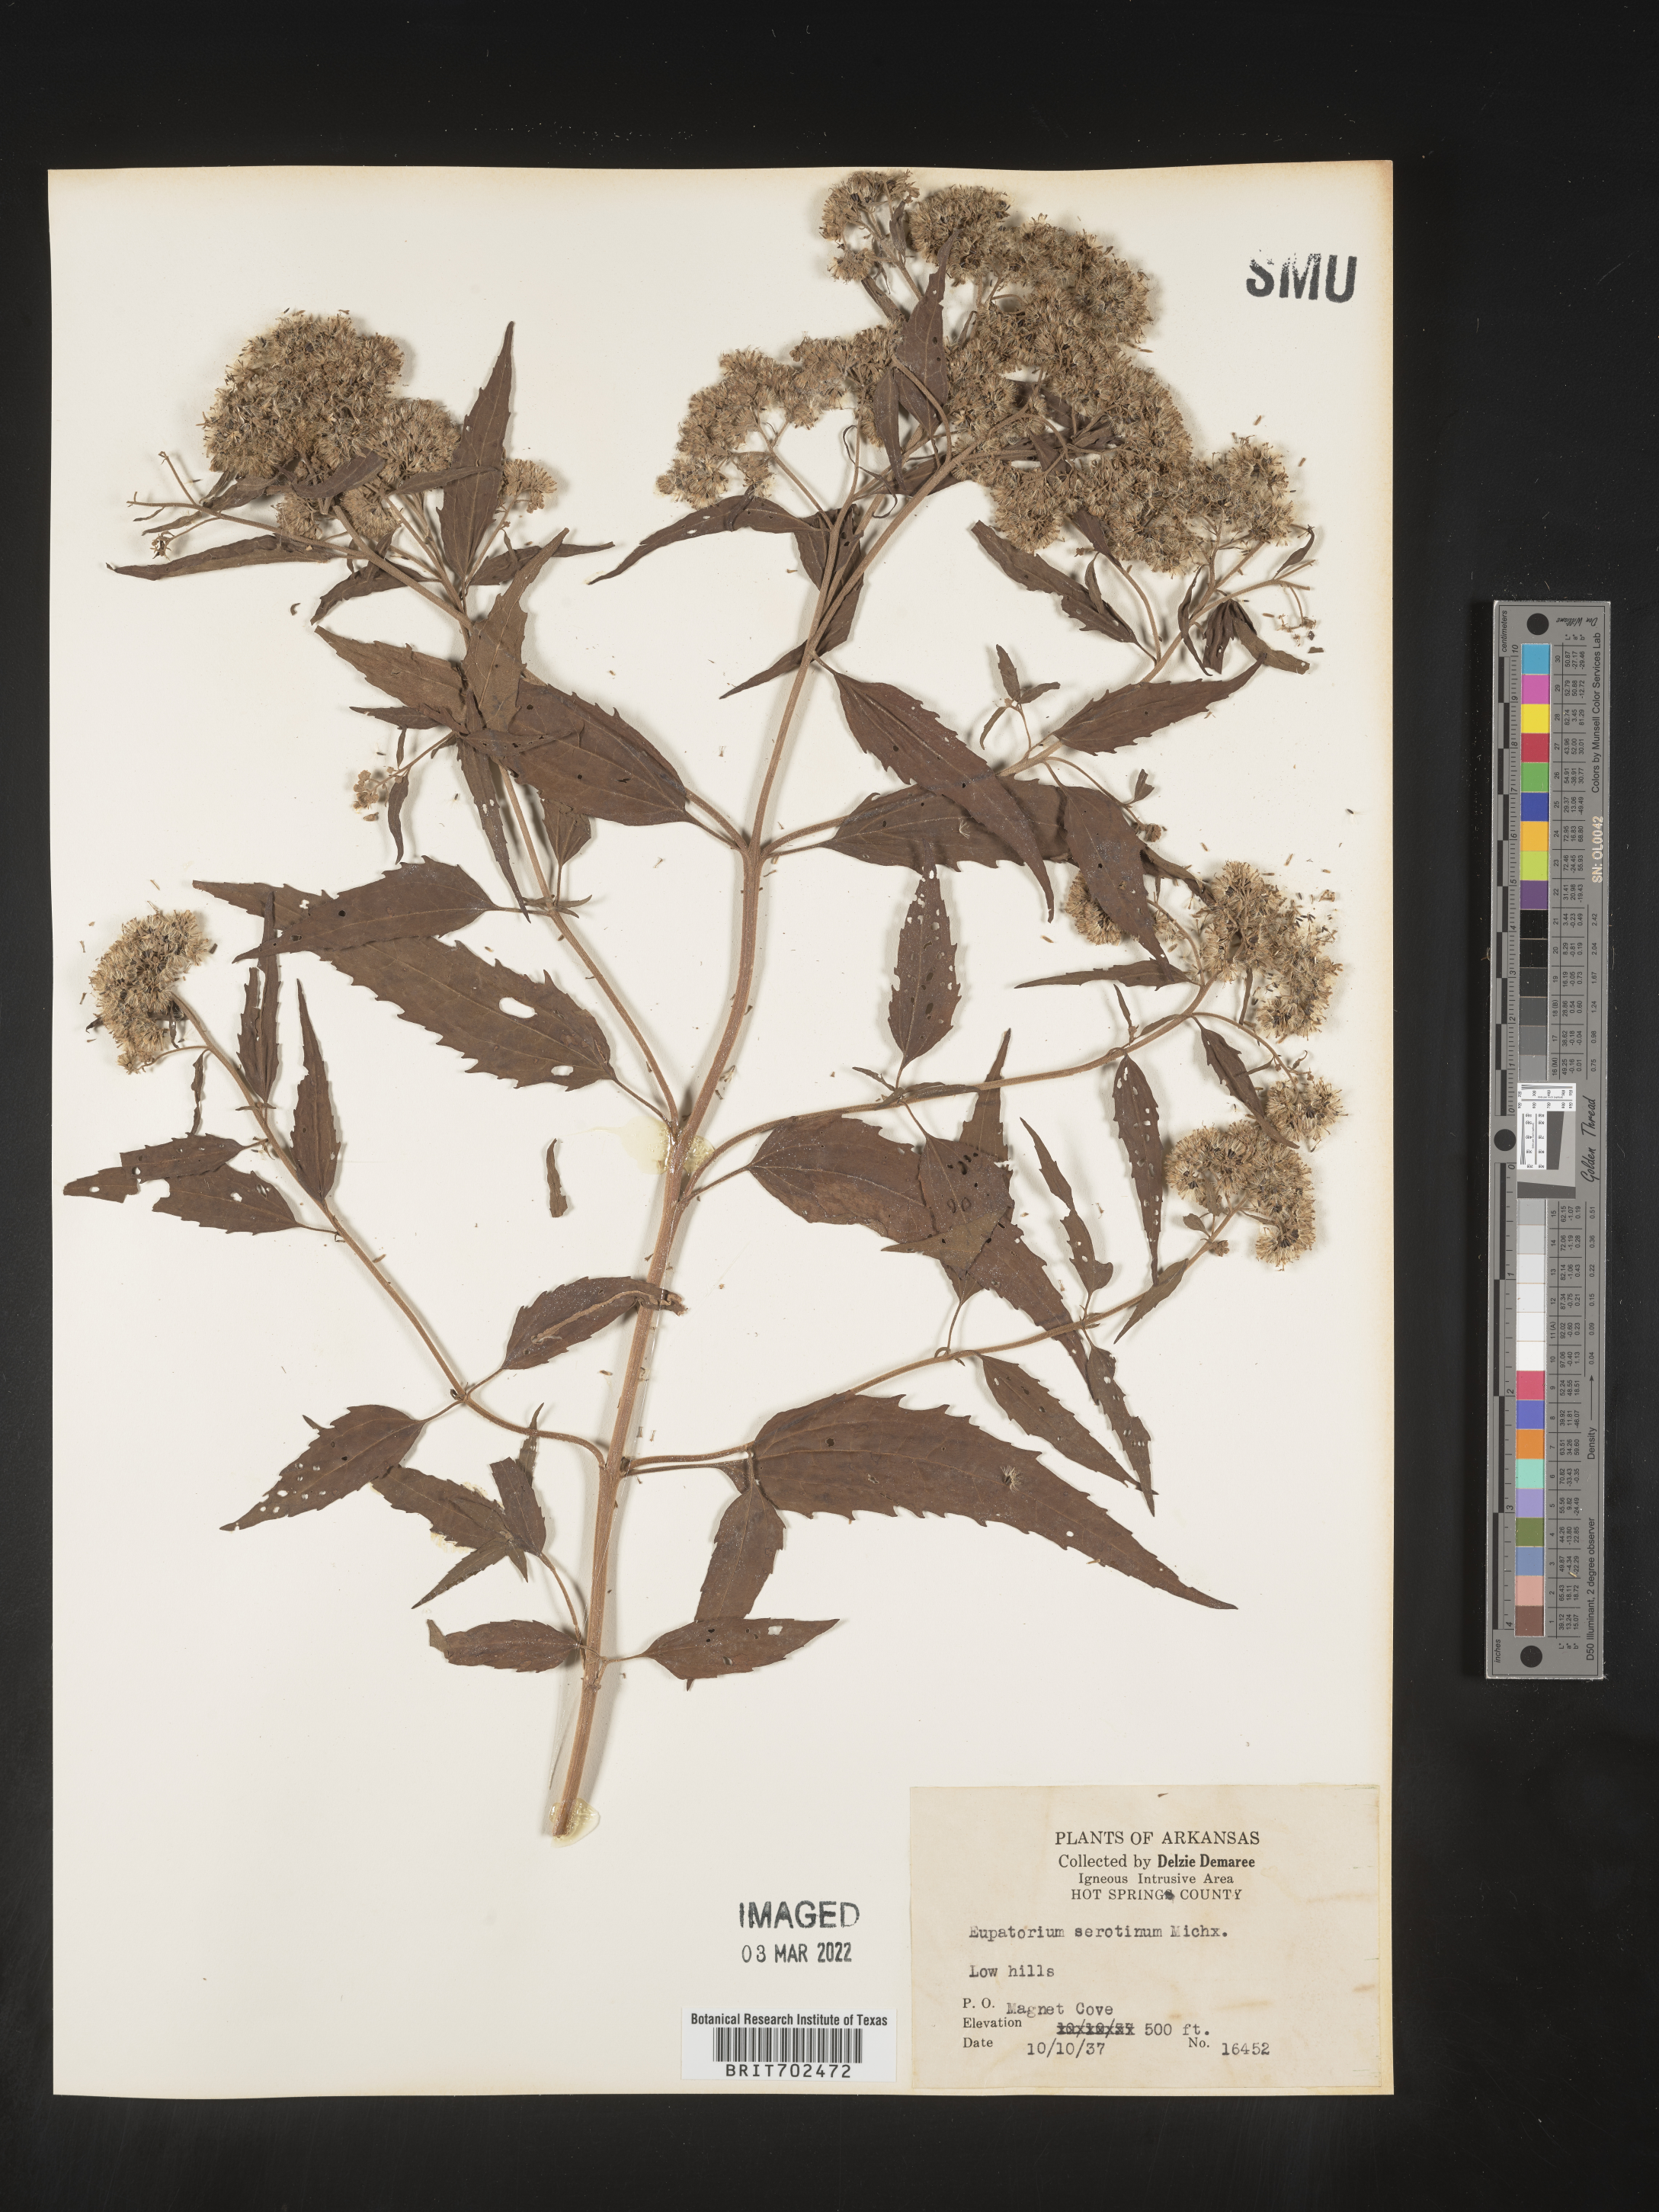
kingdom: Plantae
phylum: Tracheophyta
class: Magnoliopsida
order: Asterales
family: Asteraceae
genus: Eupatorium
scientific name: Eupatorium serotinum
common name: Late boneset
